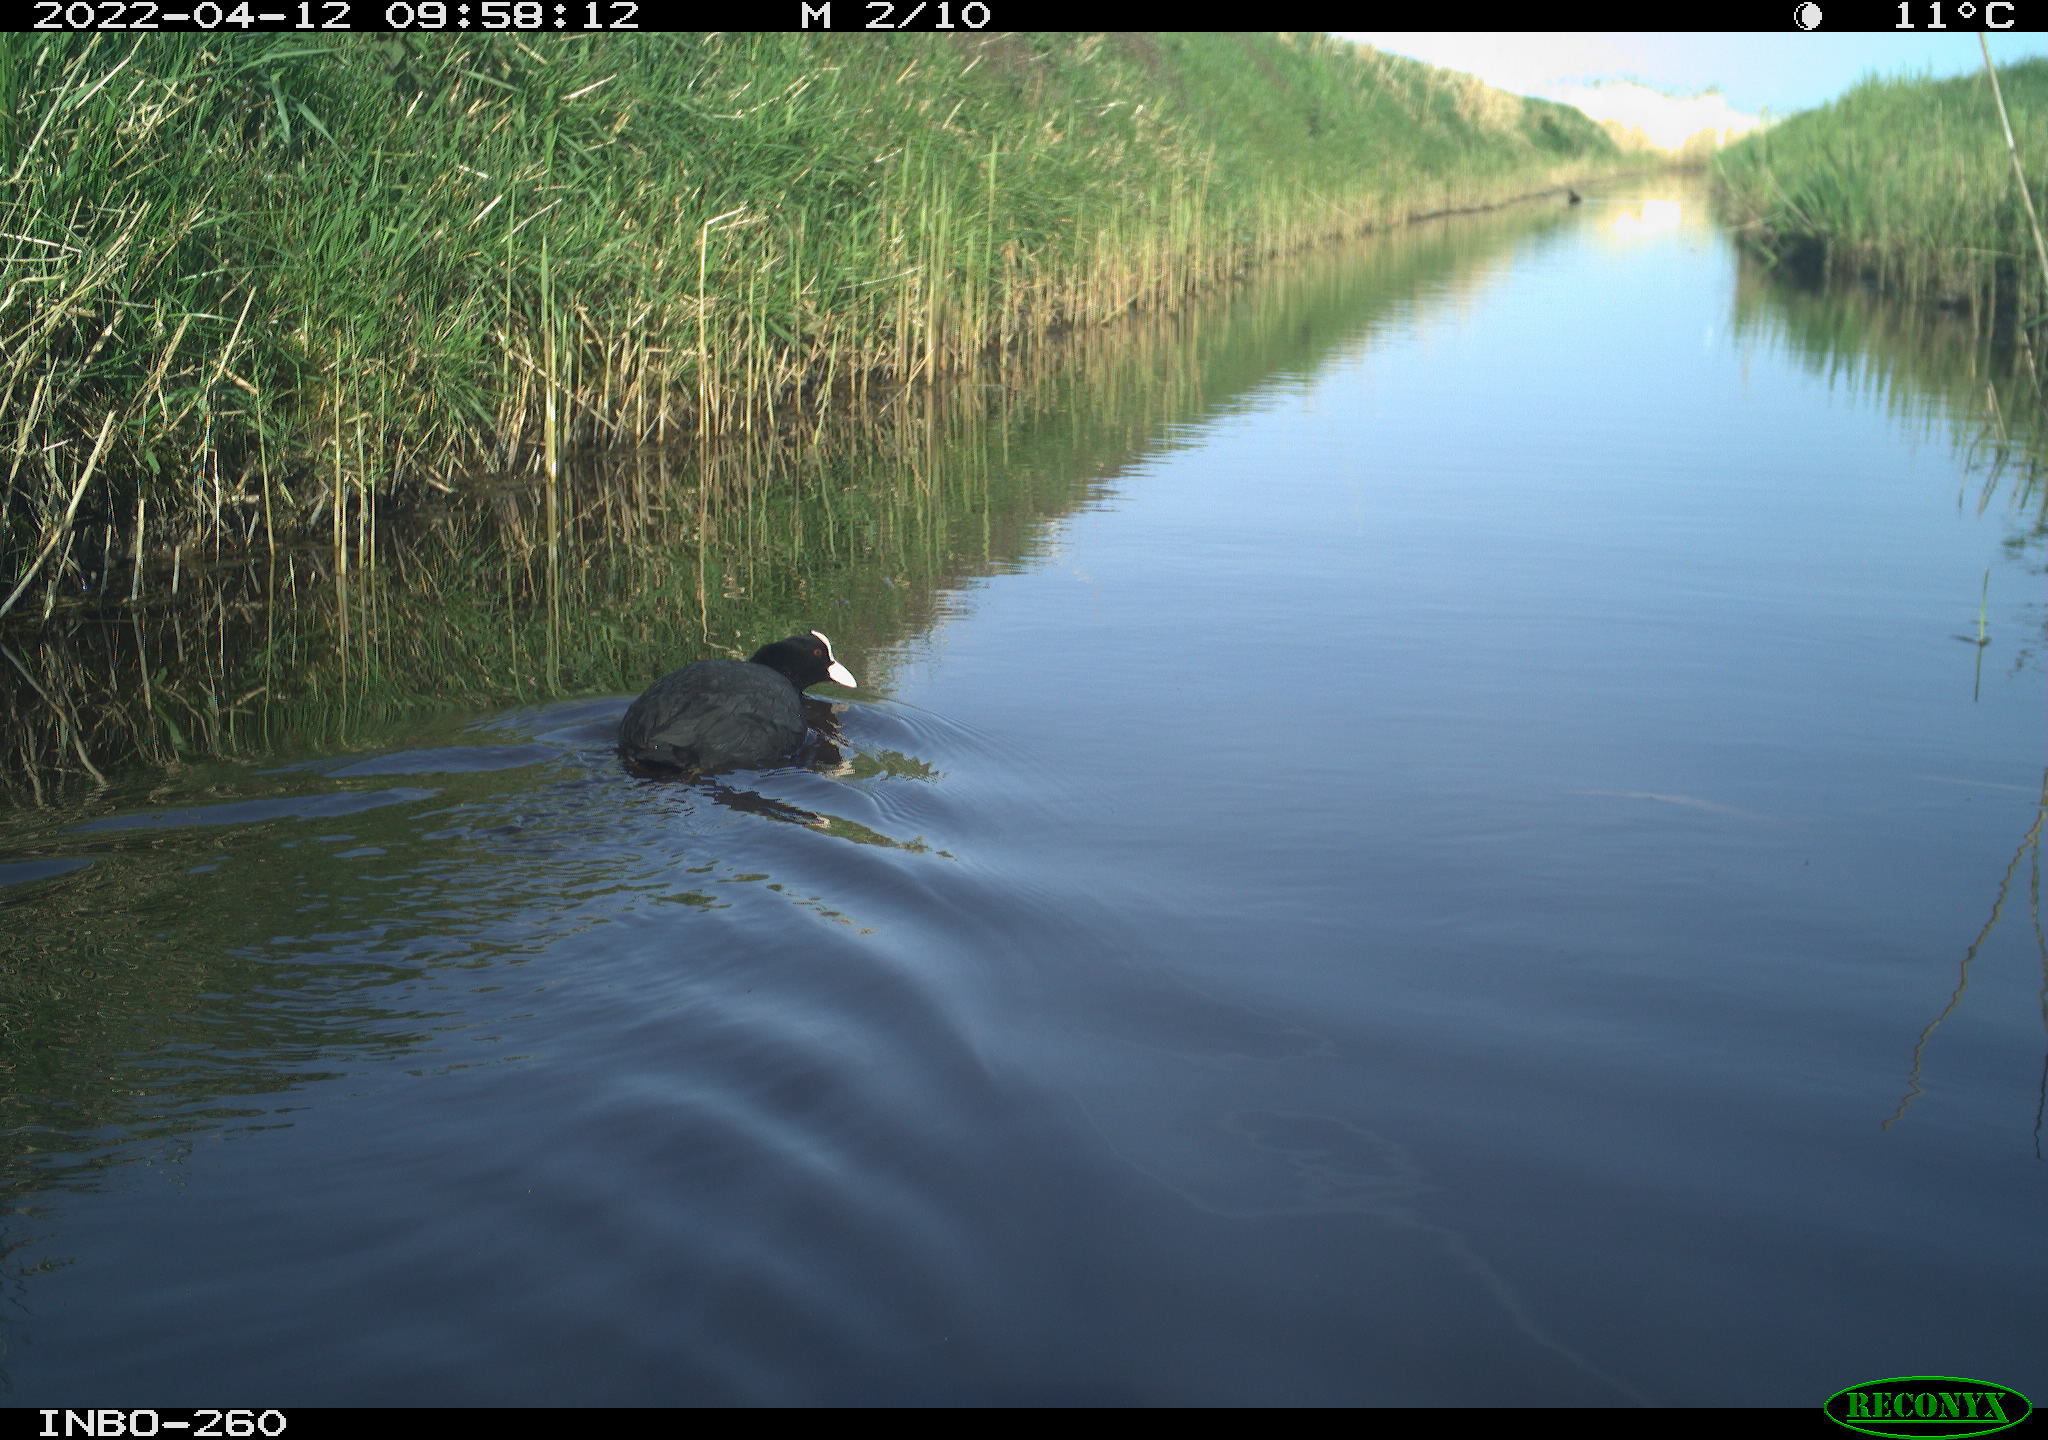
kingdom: Animalia
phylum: Chordata
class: Aves
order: Gruiformes
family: Rallidae
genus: Fulica
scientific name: Fulica atra
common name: Eurasian coot
